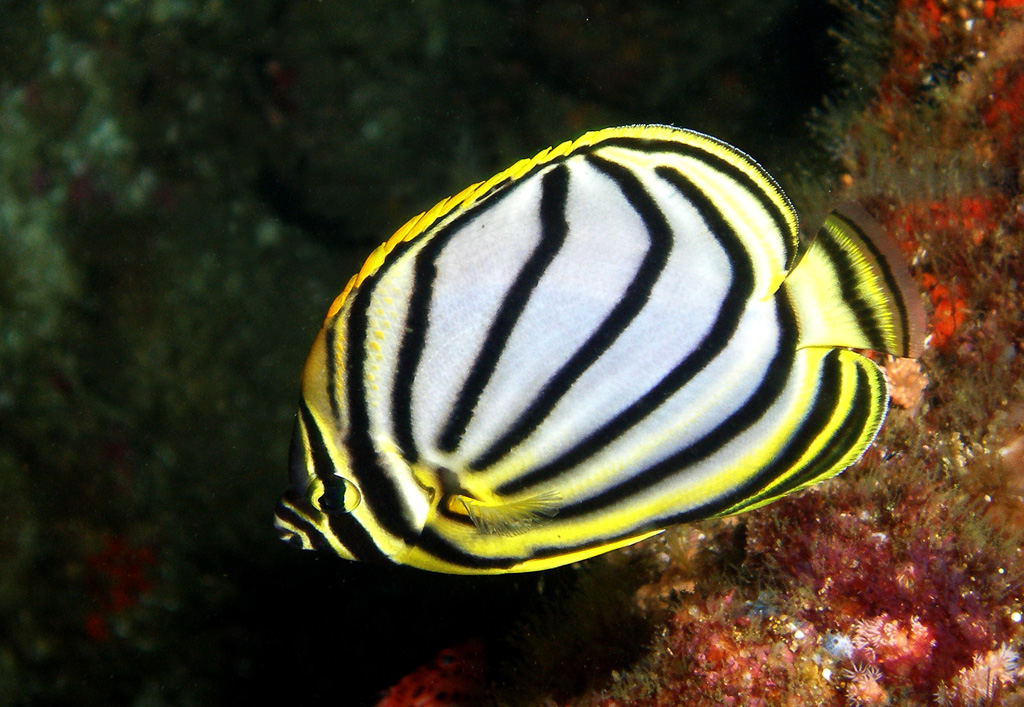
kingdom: Animalia
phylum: Chordata
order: Perciformes
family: Chaetodontidae
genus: Chaetodon
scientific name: Chaetodon meyeri
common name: Meyer's butterflyfish
